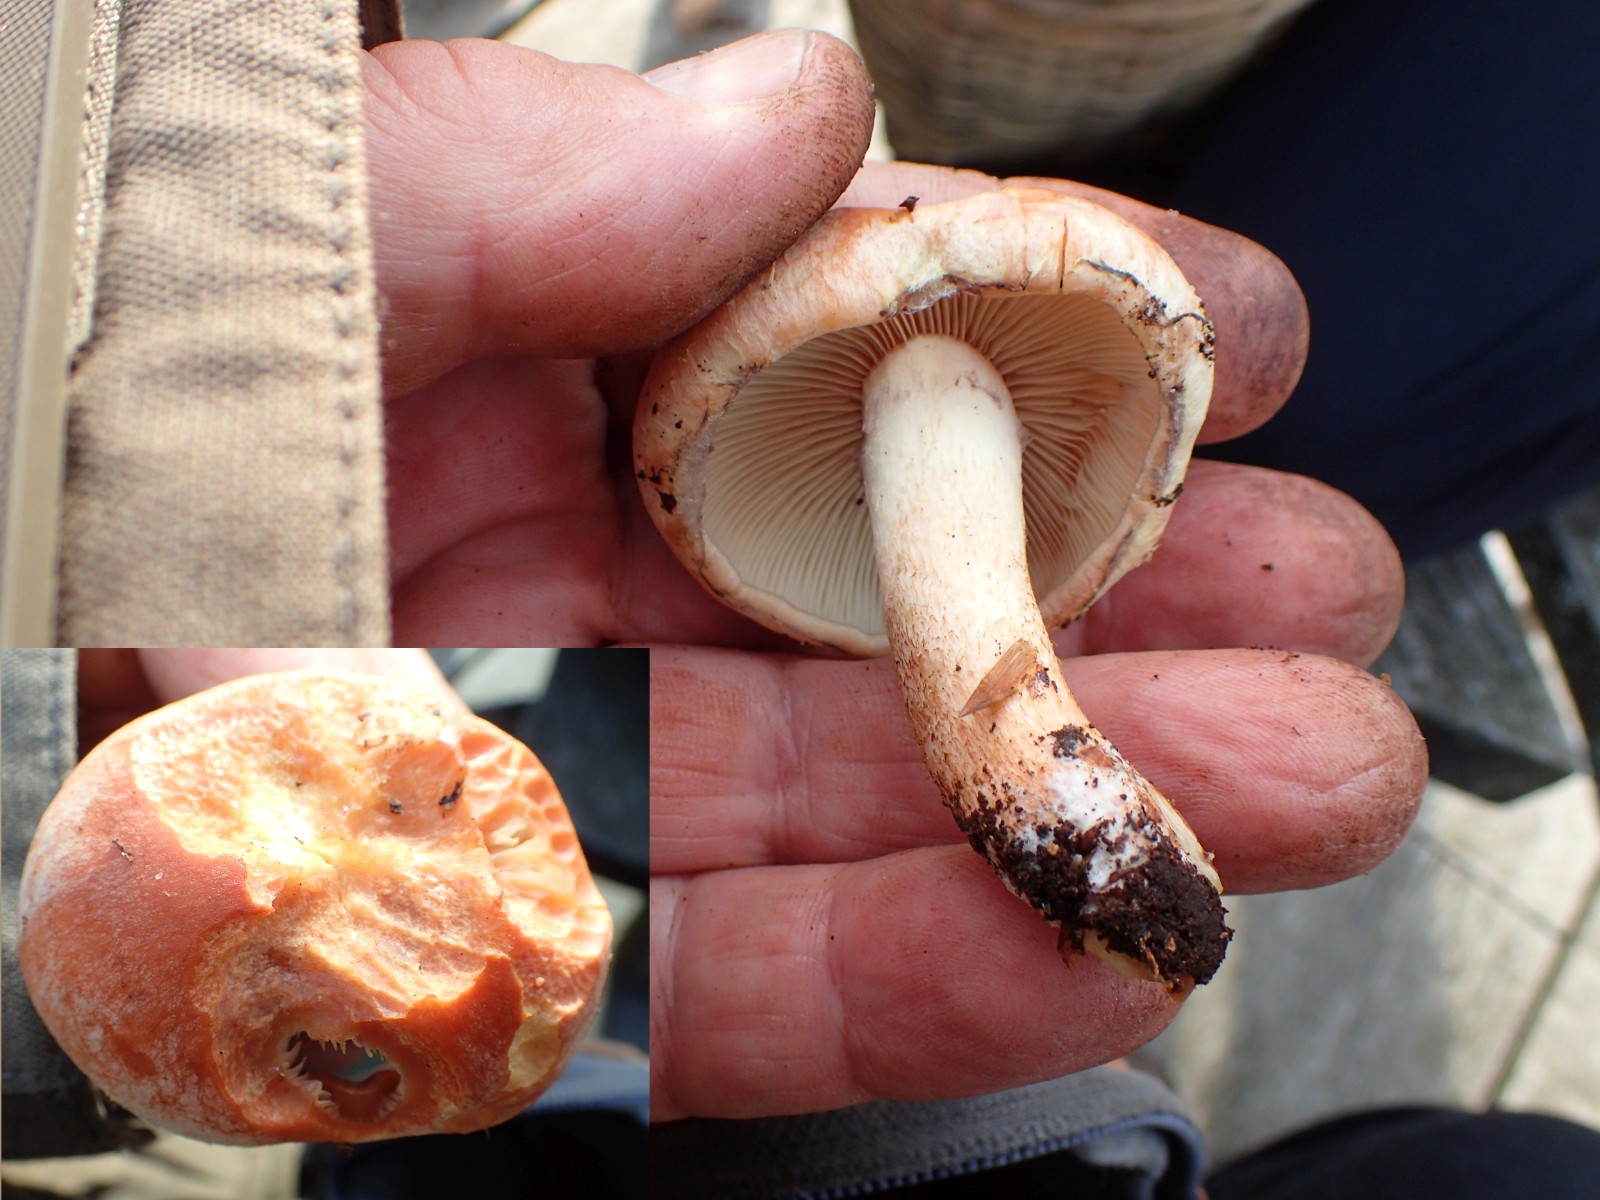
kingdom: Fungi
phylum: Basidiomycota
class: Agaricomycetes
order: Agaricales
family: Strophariaceae
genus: Hypholoma
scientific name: Hypholoma lateritium
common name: teglrød svovlhat
